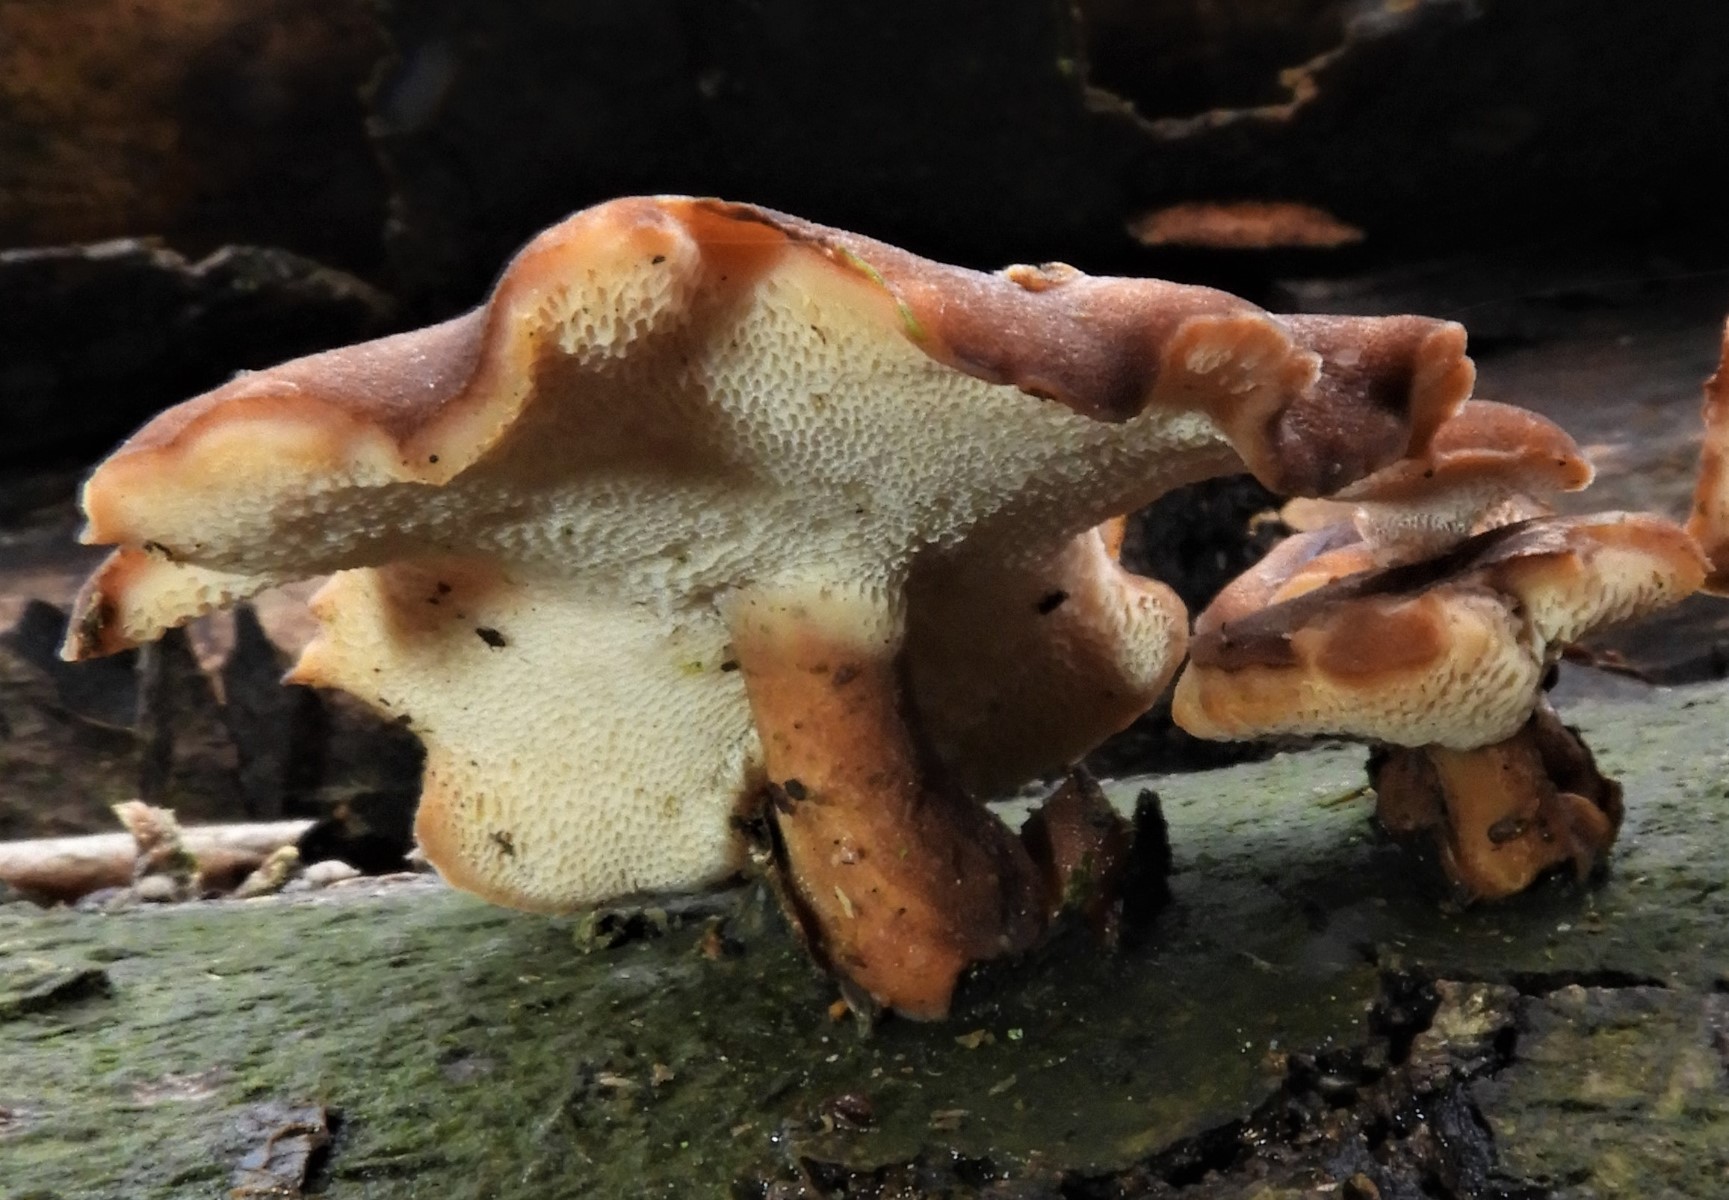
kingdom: Fungi
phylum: Basidiomycota
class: Agaricomycetes
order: Polyporales
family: Polyporaceae
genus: Lentinus
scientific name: Lentinus brumalis
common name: vinter-stilkporesvamp
